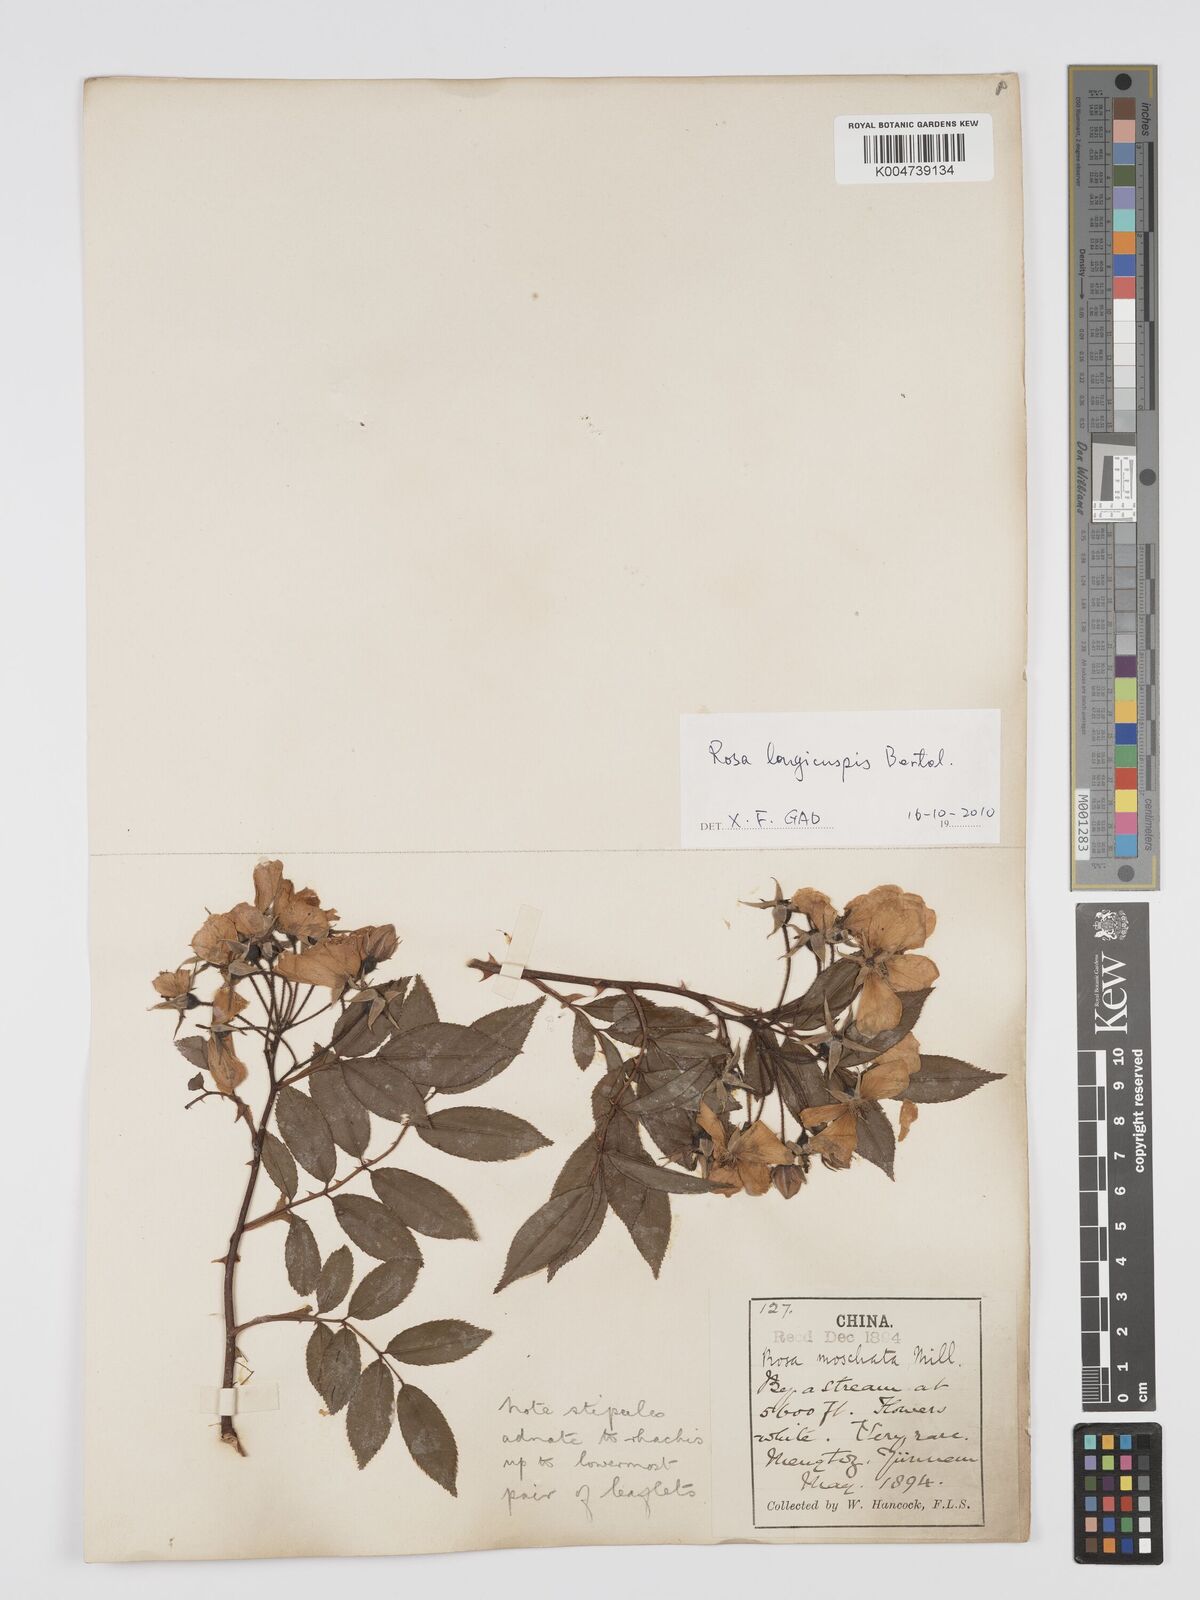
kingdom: Plantae
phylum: Tracheophyta
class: Magnoliopsida
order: Rosales
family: Rosaceae
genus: Rosa
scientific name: Rosa longicuspis
